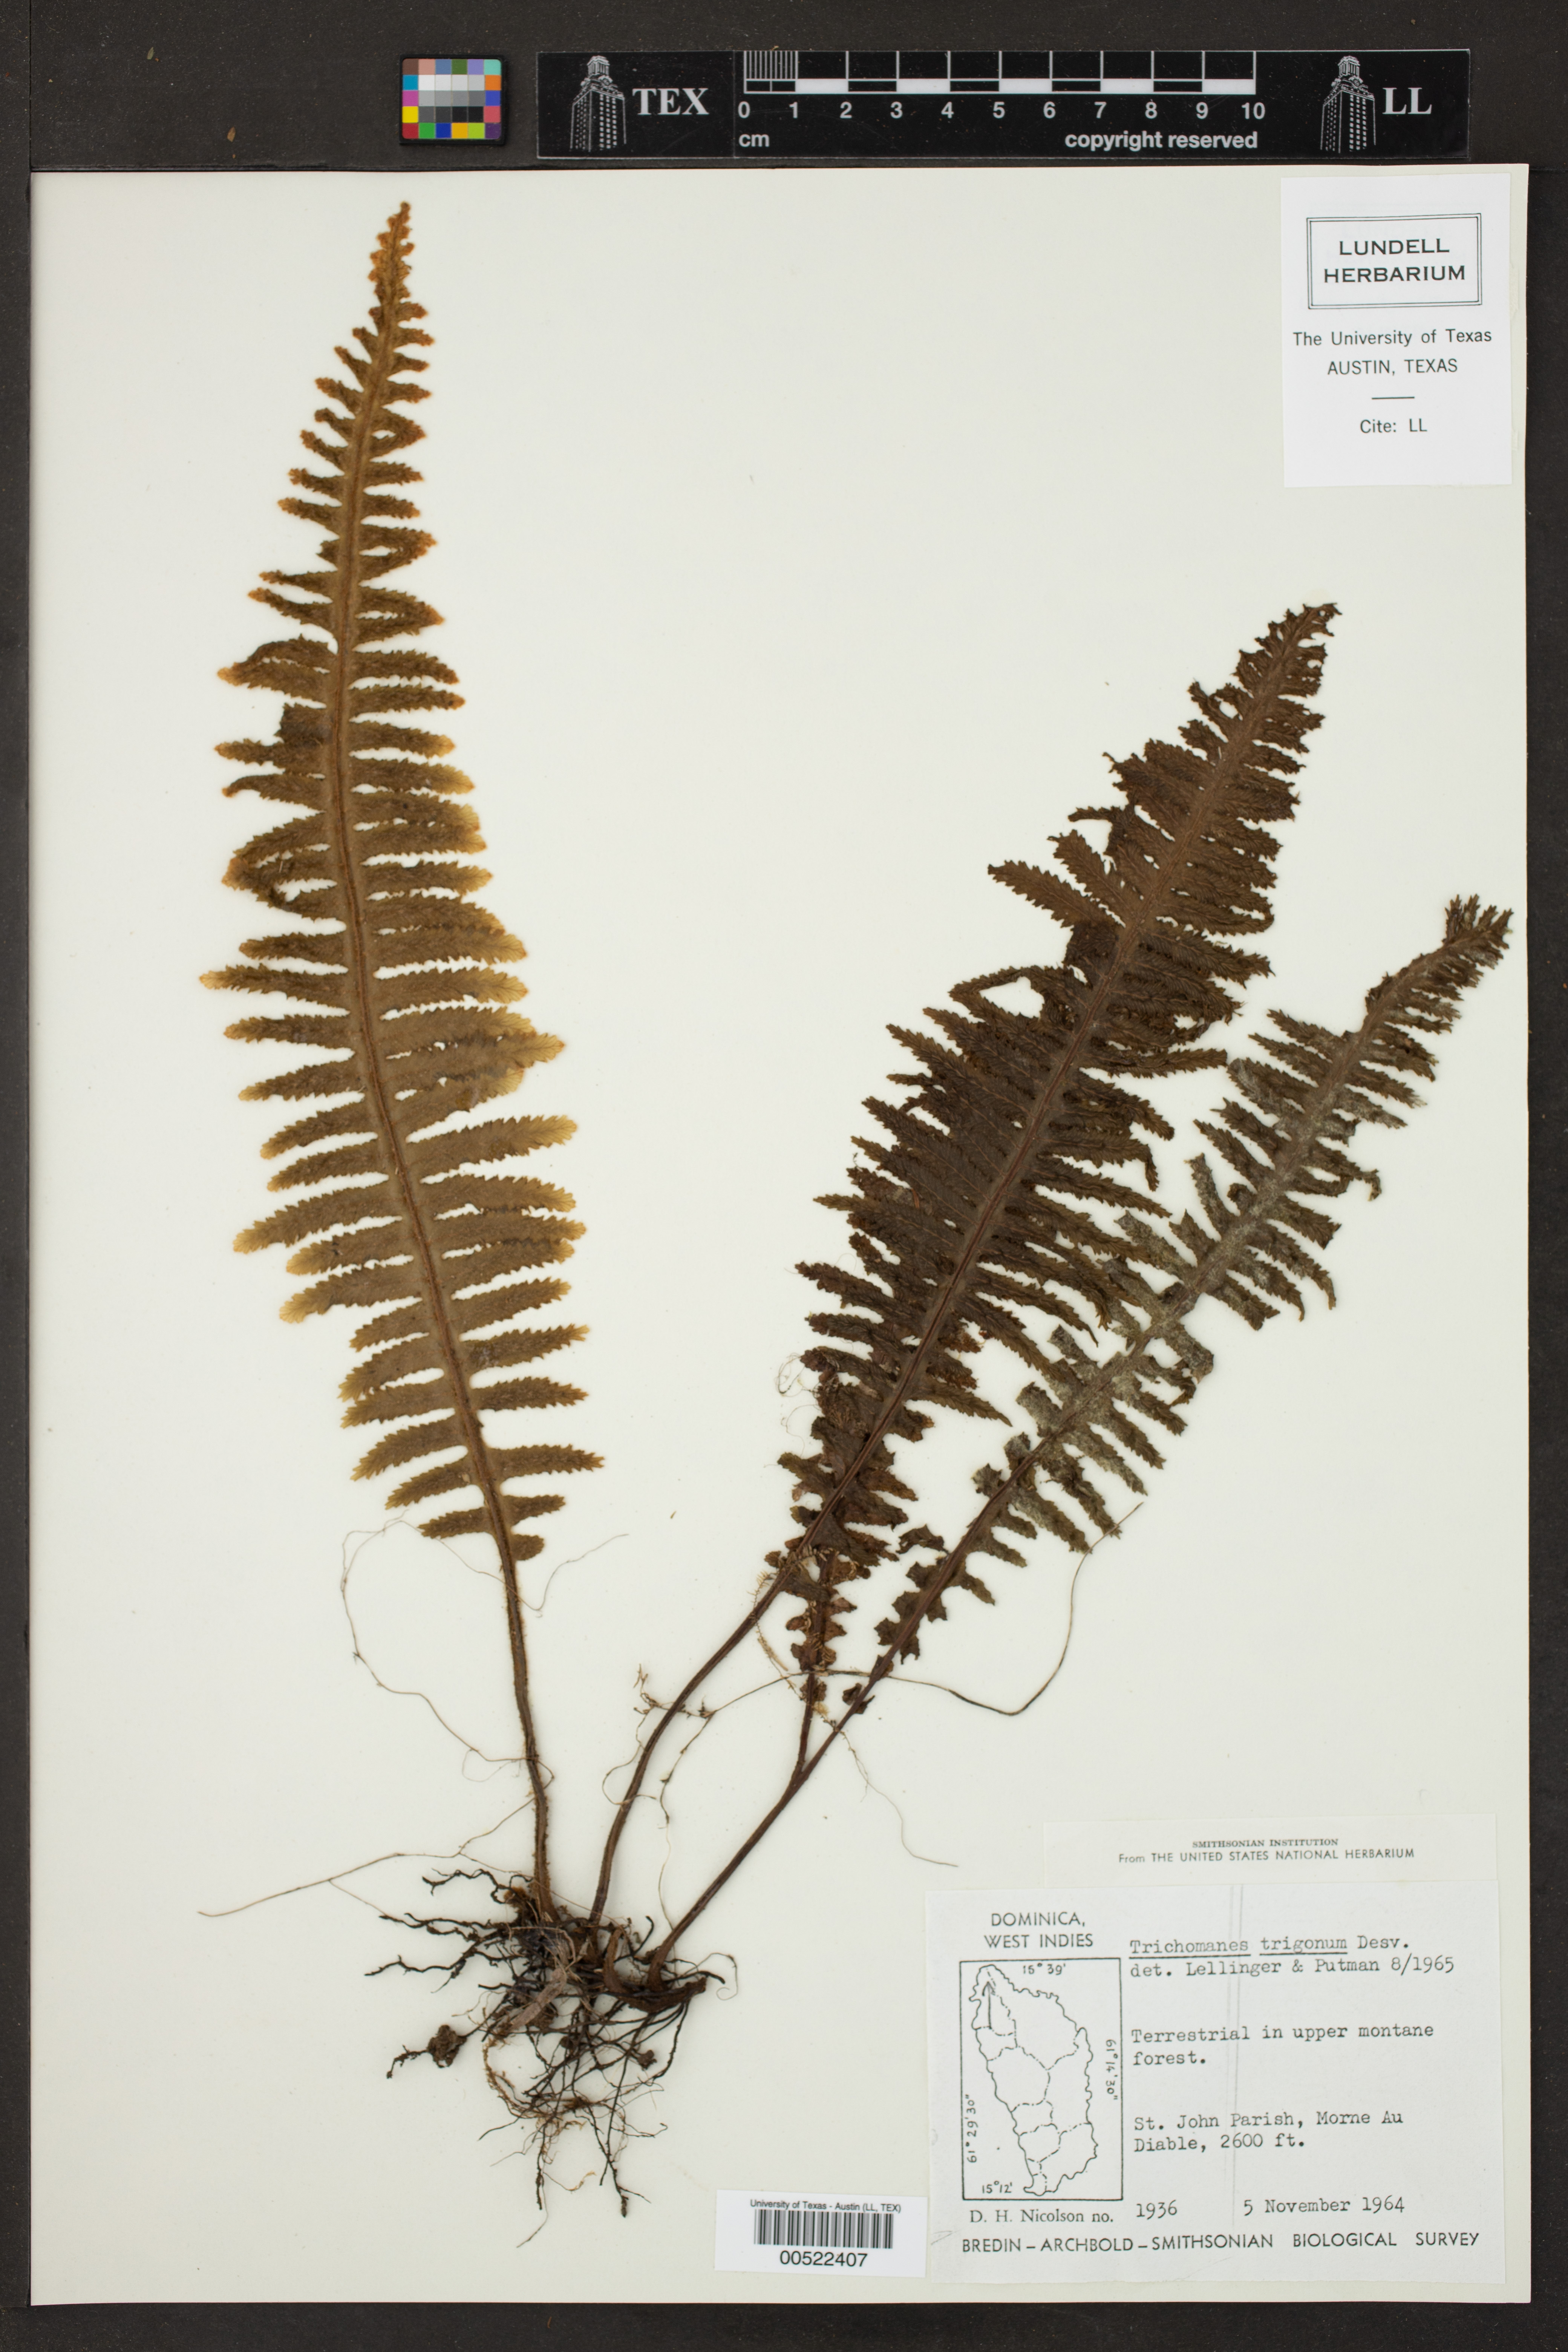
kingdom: Plantae
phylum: Tracheophyta
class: Polypodiopsida
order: Hymenophyllales
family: Hymenophyllaceae
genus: Trichomanes
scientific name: Trichomanes trigonum
